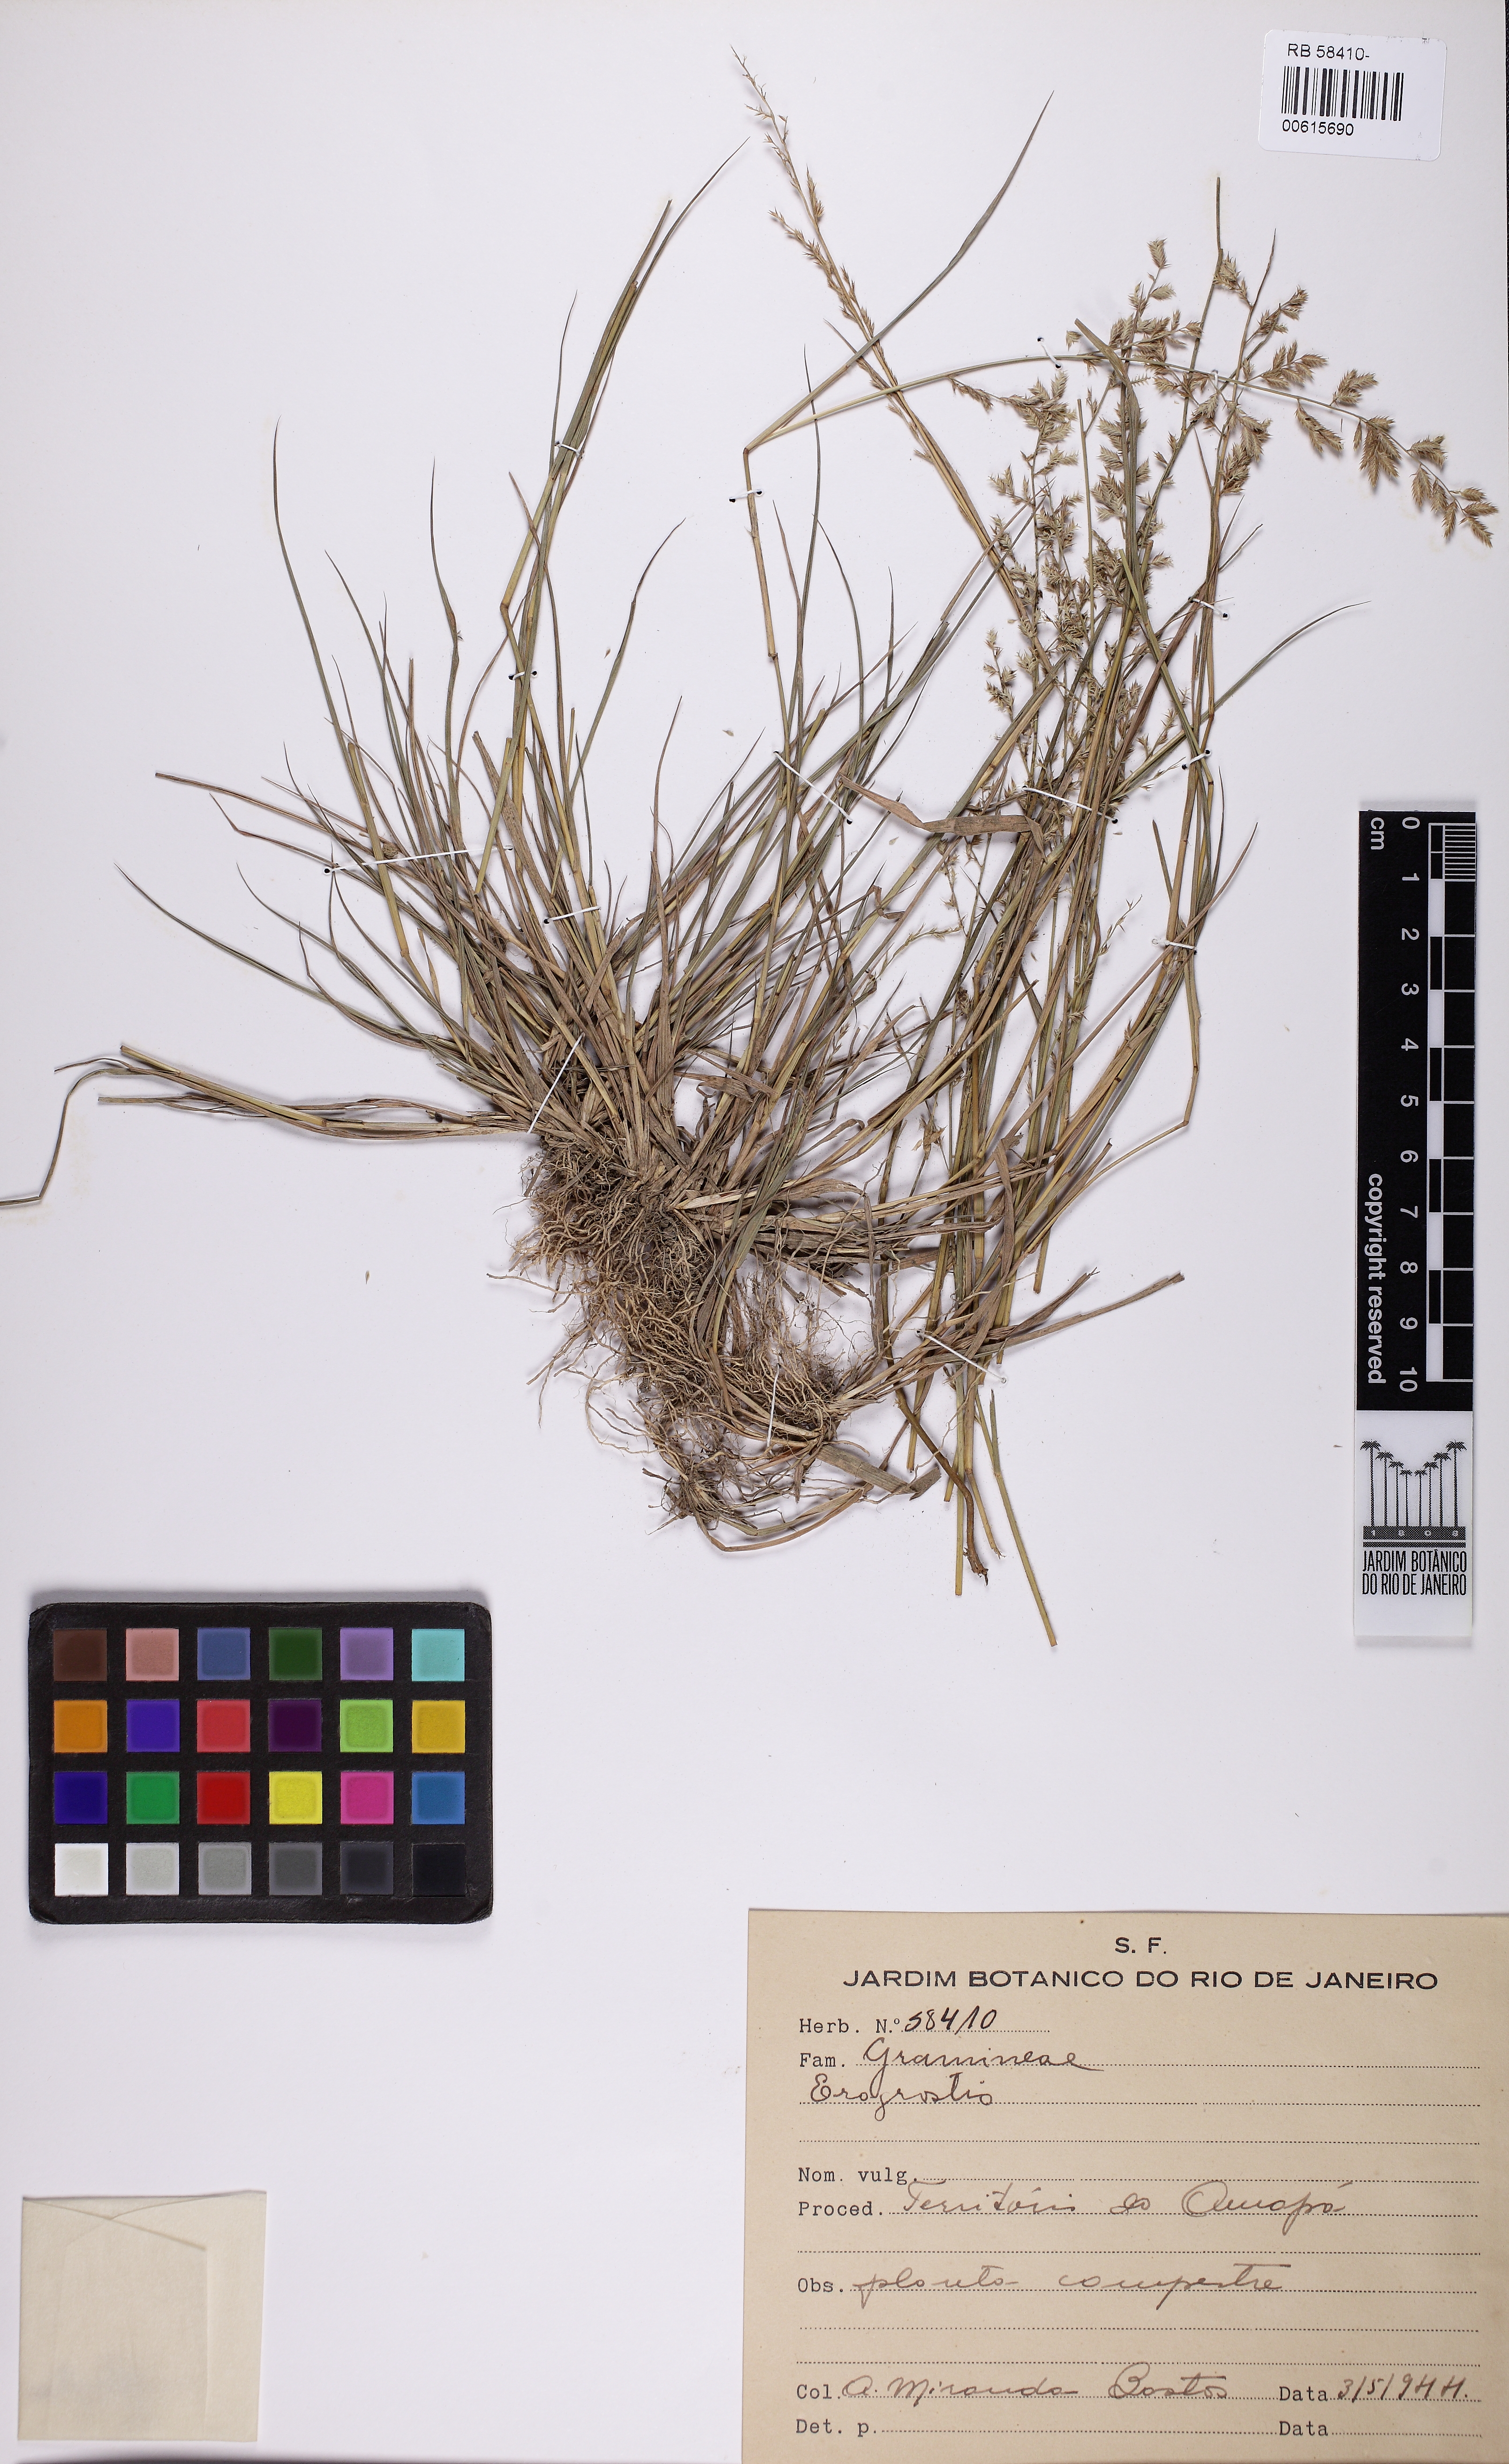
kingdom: Plantae
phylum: Tracheophyta
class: Liliopsida
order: Poales
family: Poaceae
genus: Eragrostis
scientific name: Eragrostis
